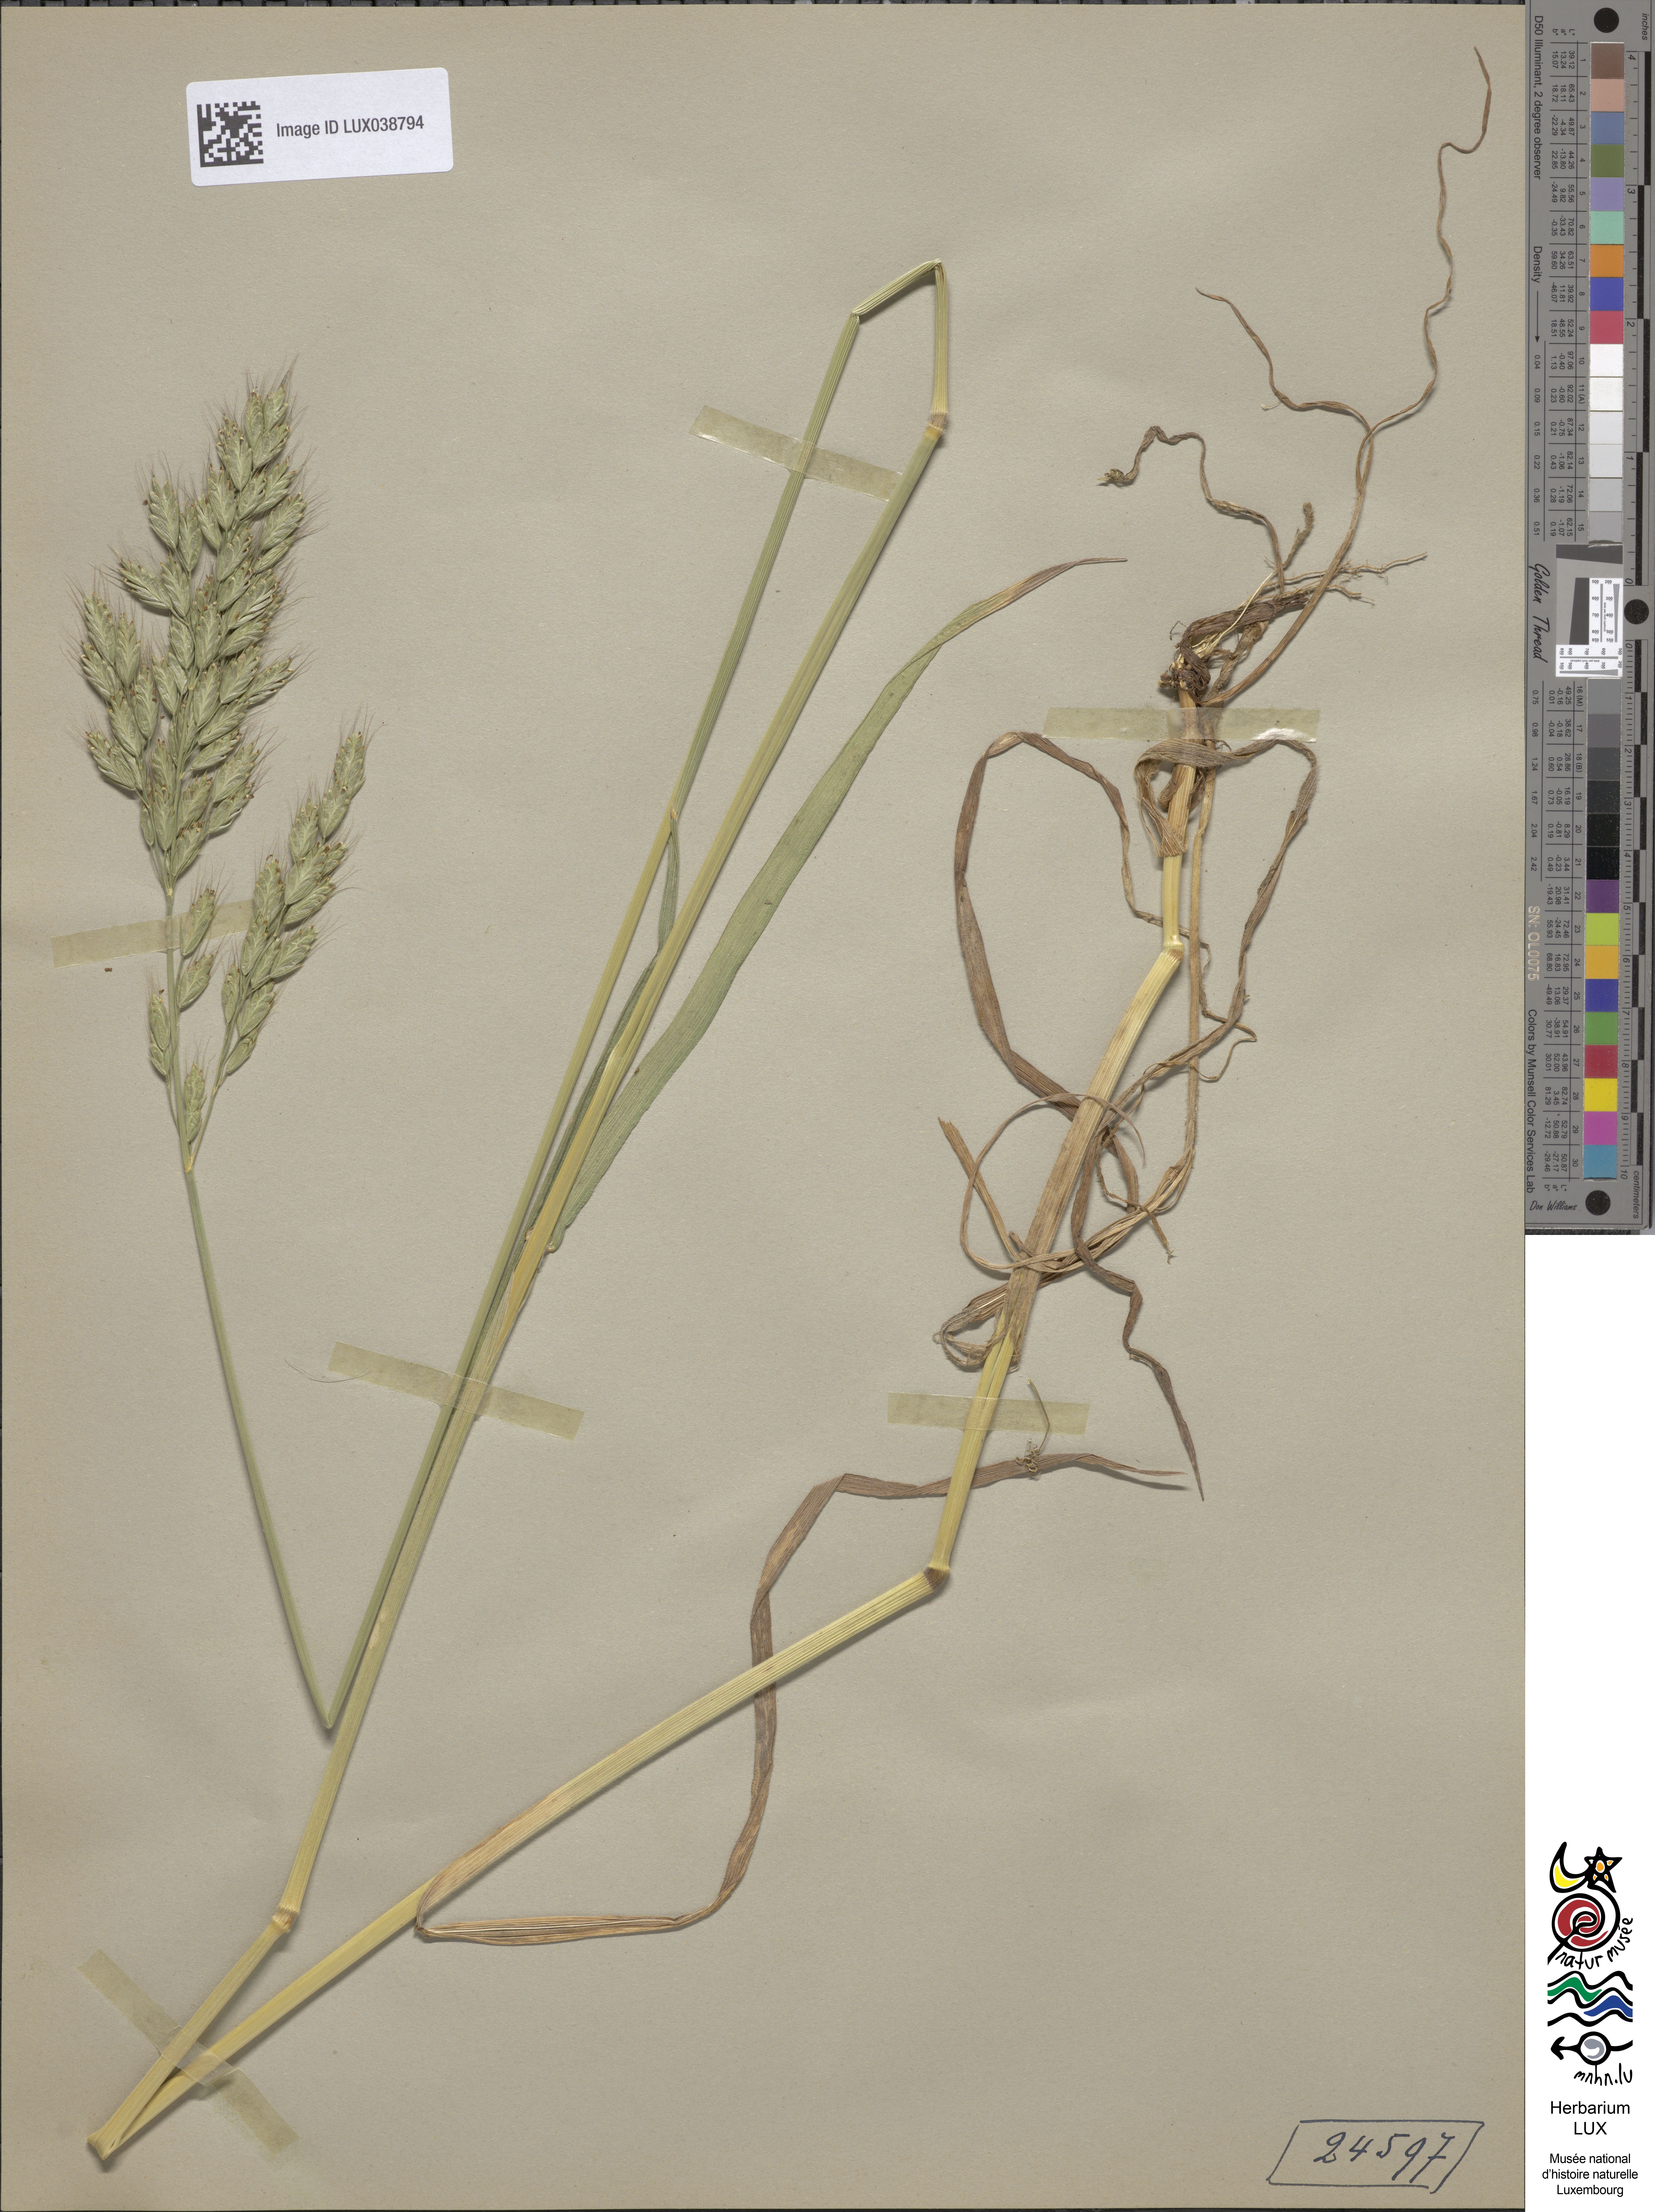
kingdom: Plantae
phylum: Tracheophyta
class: Liliopsida
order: Poales
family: Poaceae
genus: Bromus
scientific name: Bromus hordeaceus
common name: Soft brome
